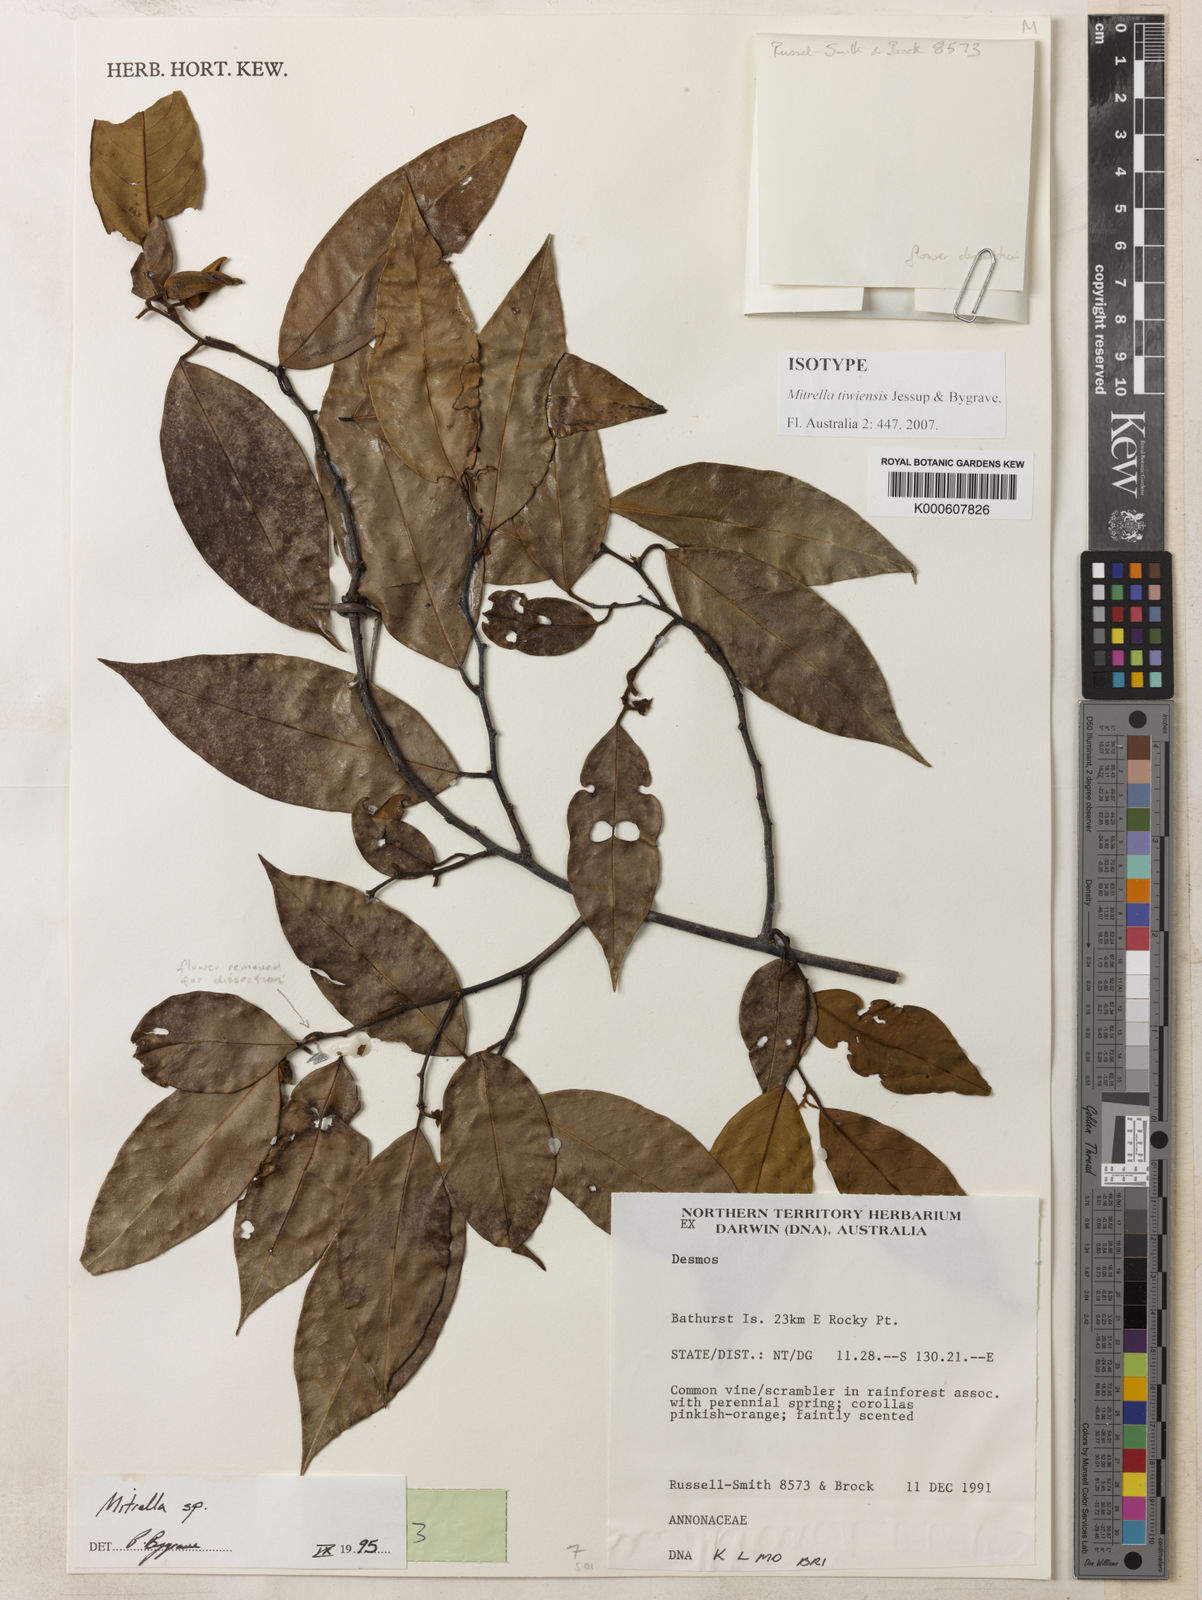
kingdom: Plantae
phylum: Tracheophyta
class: Magnoliopsida
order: Magnoliales
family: Annonaceae
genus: Mitrella
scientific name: Mitrella
